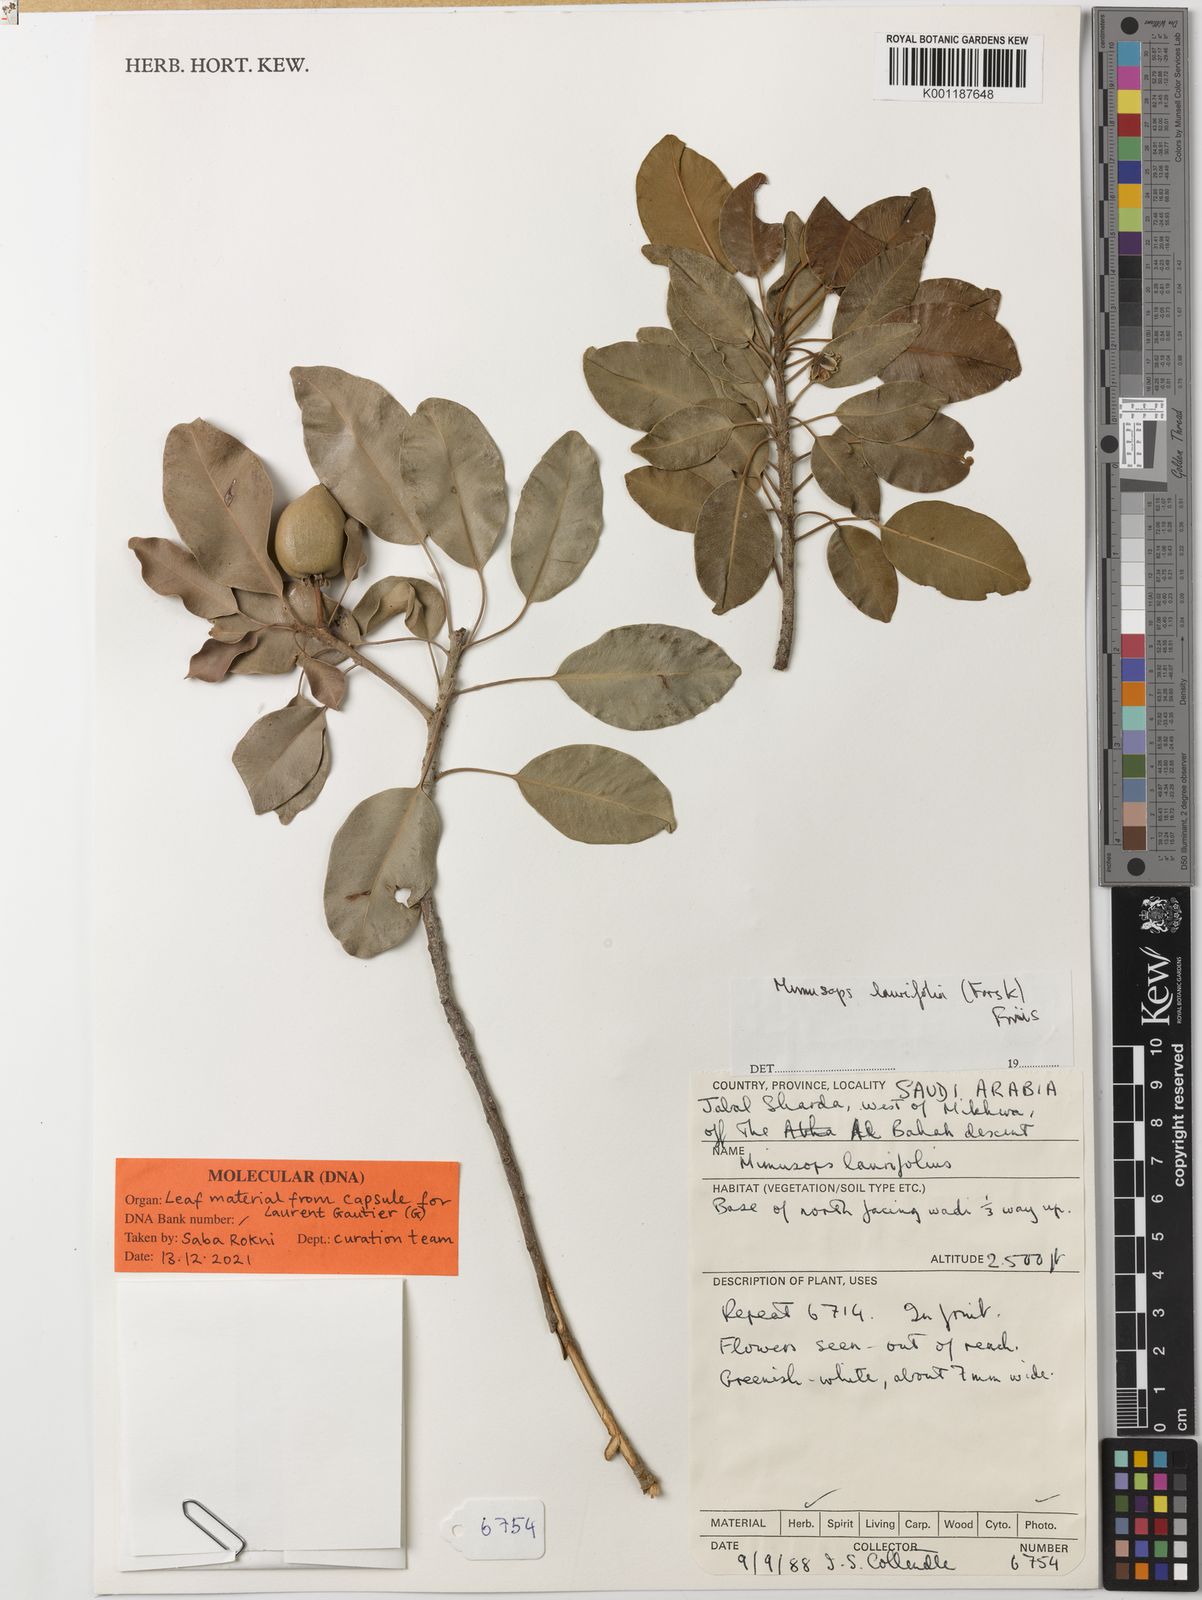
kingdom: Plantae
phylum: Tracheophyta
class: Magnoliopsida
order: Ericales
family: Sapotaceae
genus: Mimusops
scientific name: Mimusops laurifolia
